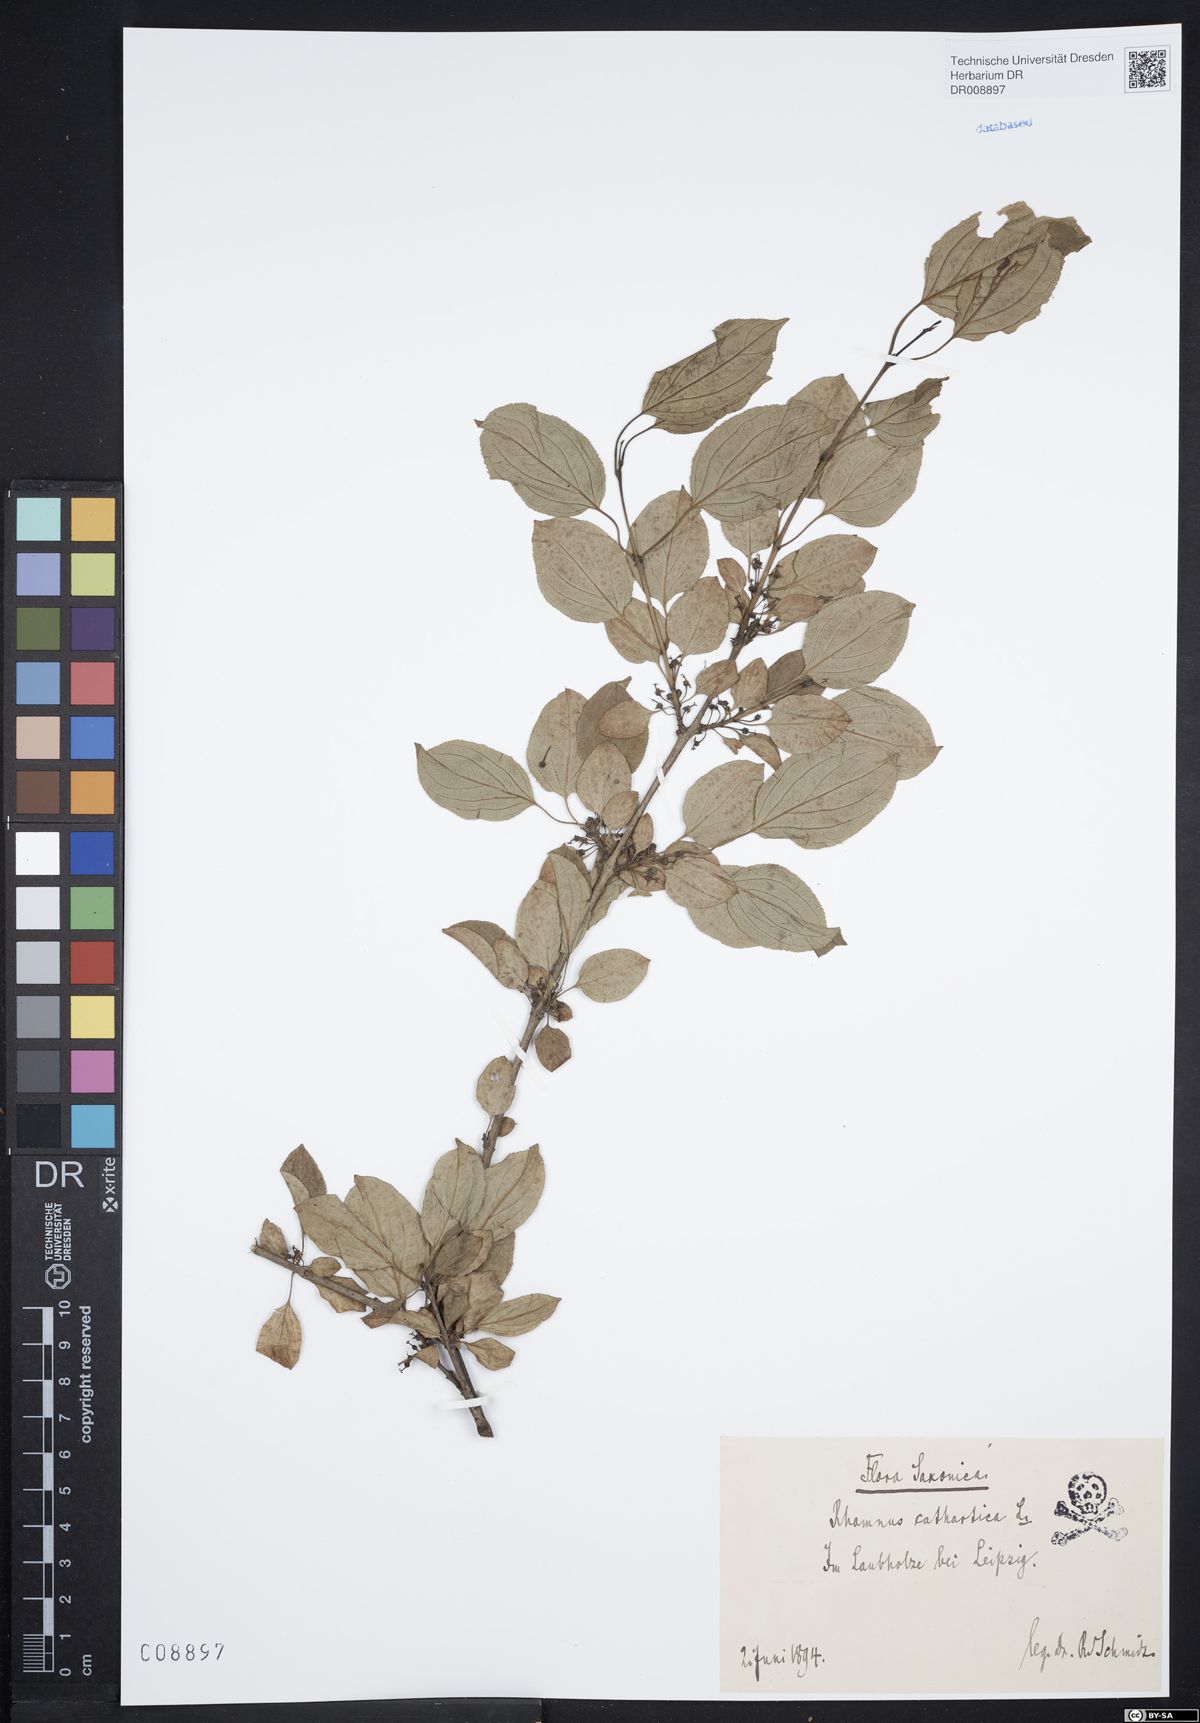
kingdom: Plantae
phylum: Tracheophyta
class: Magnoliopsida
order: Rosales
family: Rhamnaceae
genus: Rhamnus
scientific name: Rhamnus cathartica
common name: Common buckthorn
